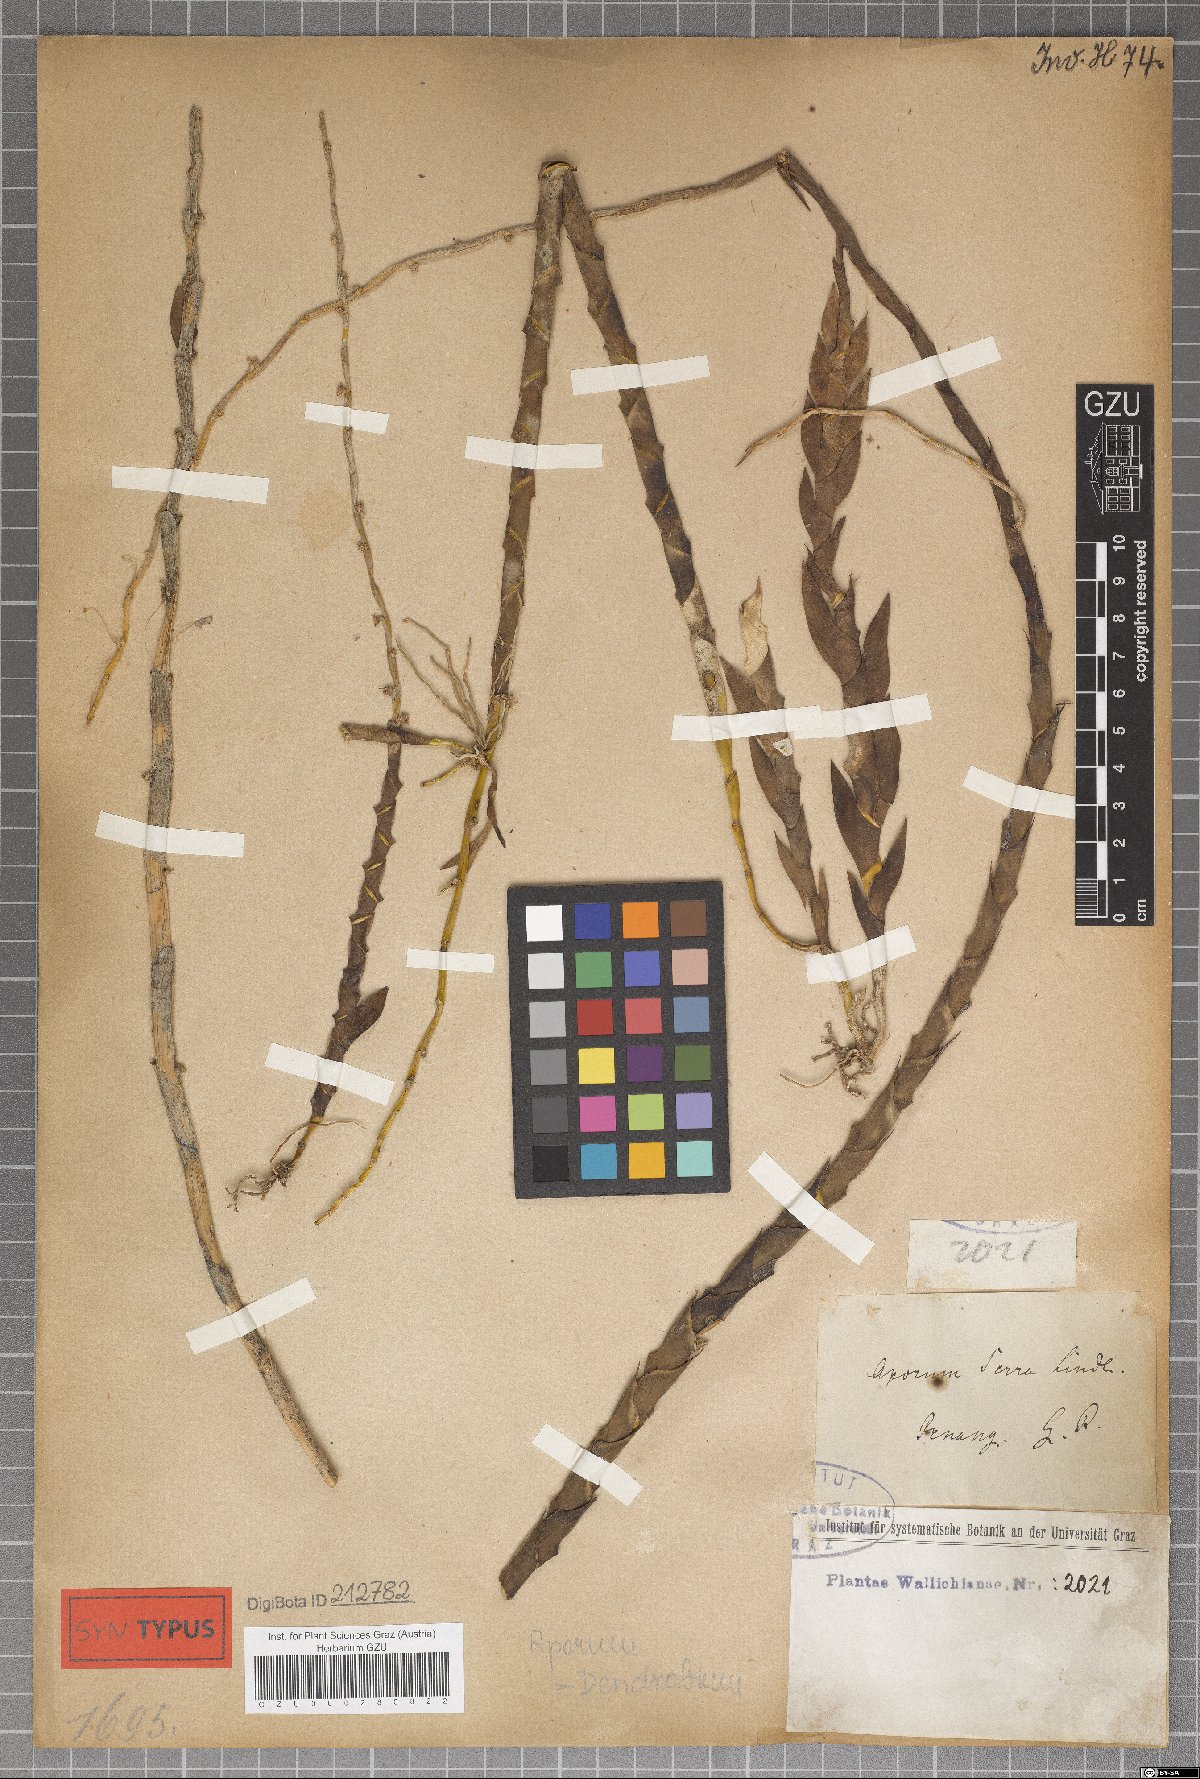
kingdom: Plantae
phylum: Tracheophyta
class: Liliopsida
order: Asparagales
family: Orchidaceae
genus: Dendrobium
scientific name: Dendrobium aloifolium
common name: Aloe-like dendrobium
